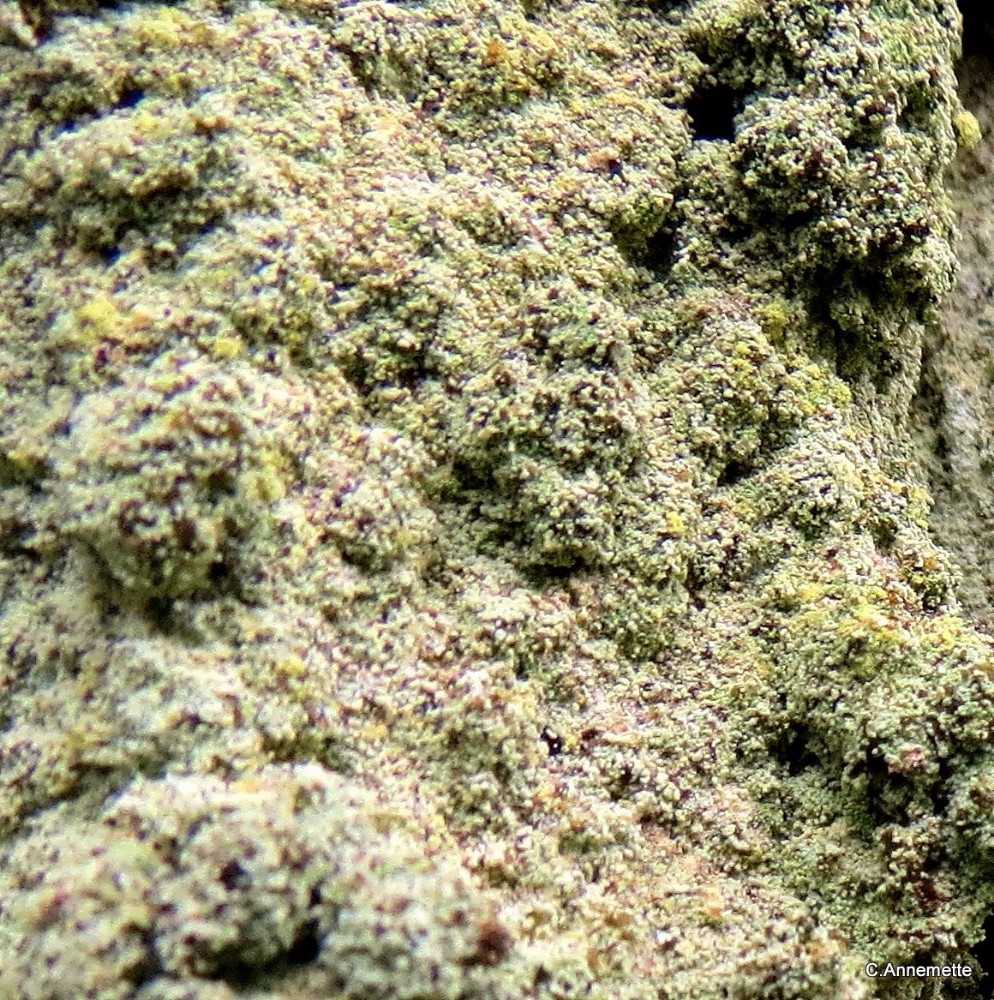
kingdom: Fungi
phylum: Ascomycota
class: Coniocybomycetes
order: Coniocybales
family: Coniocybaceae
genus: Chaenotheca
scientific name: Chaenotheca ferruginea
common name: rustbrun knappenålslav
